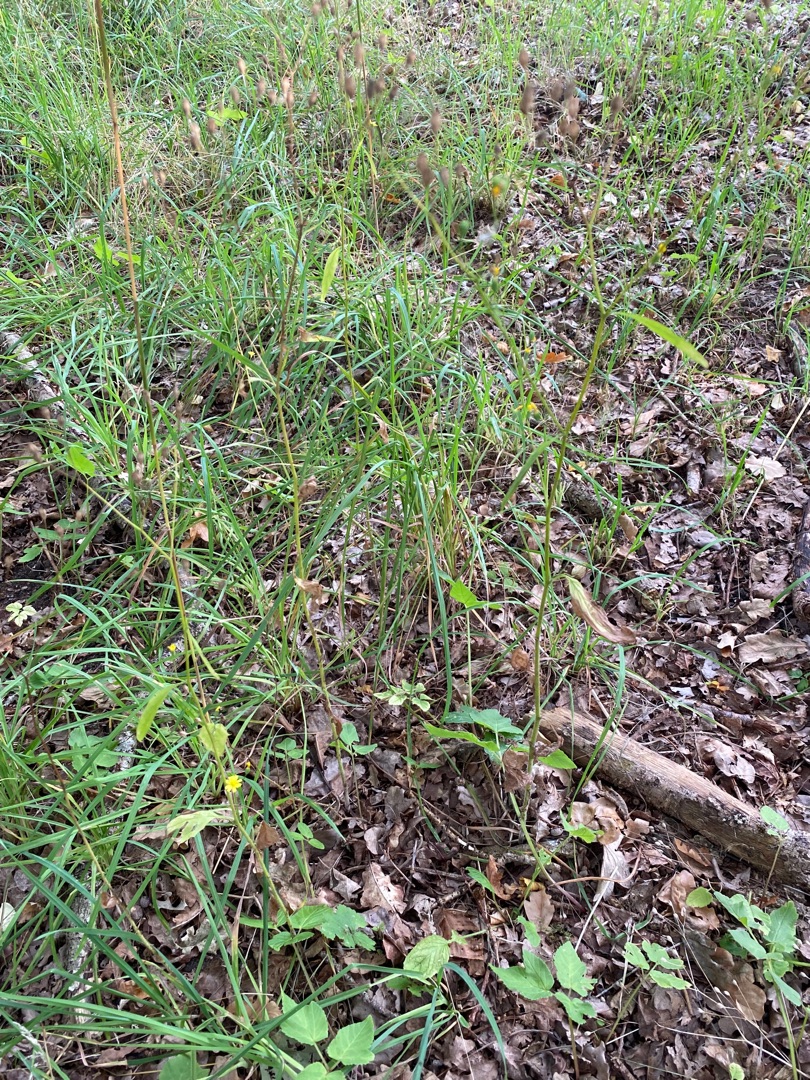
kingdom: Plantae
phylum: Tracheophyta
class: Magnoliopsida
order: Asterales
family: Asteraceae
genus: Lapsana
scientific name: Lapsana communis
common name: Haremad
